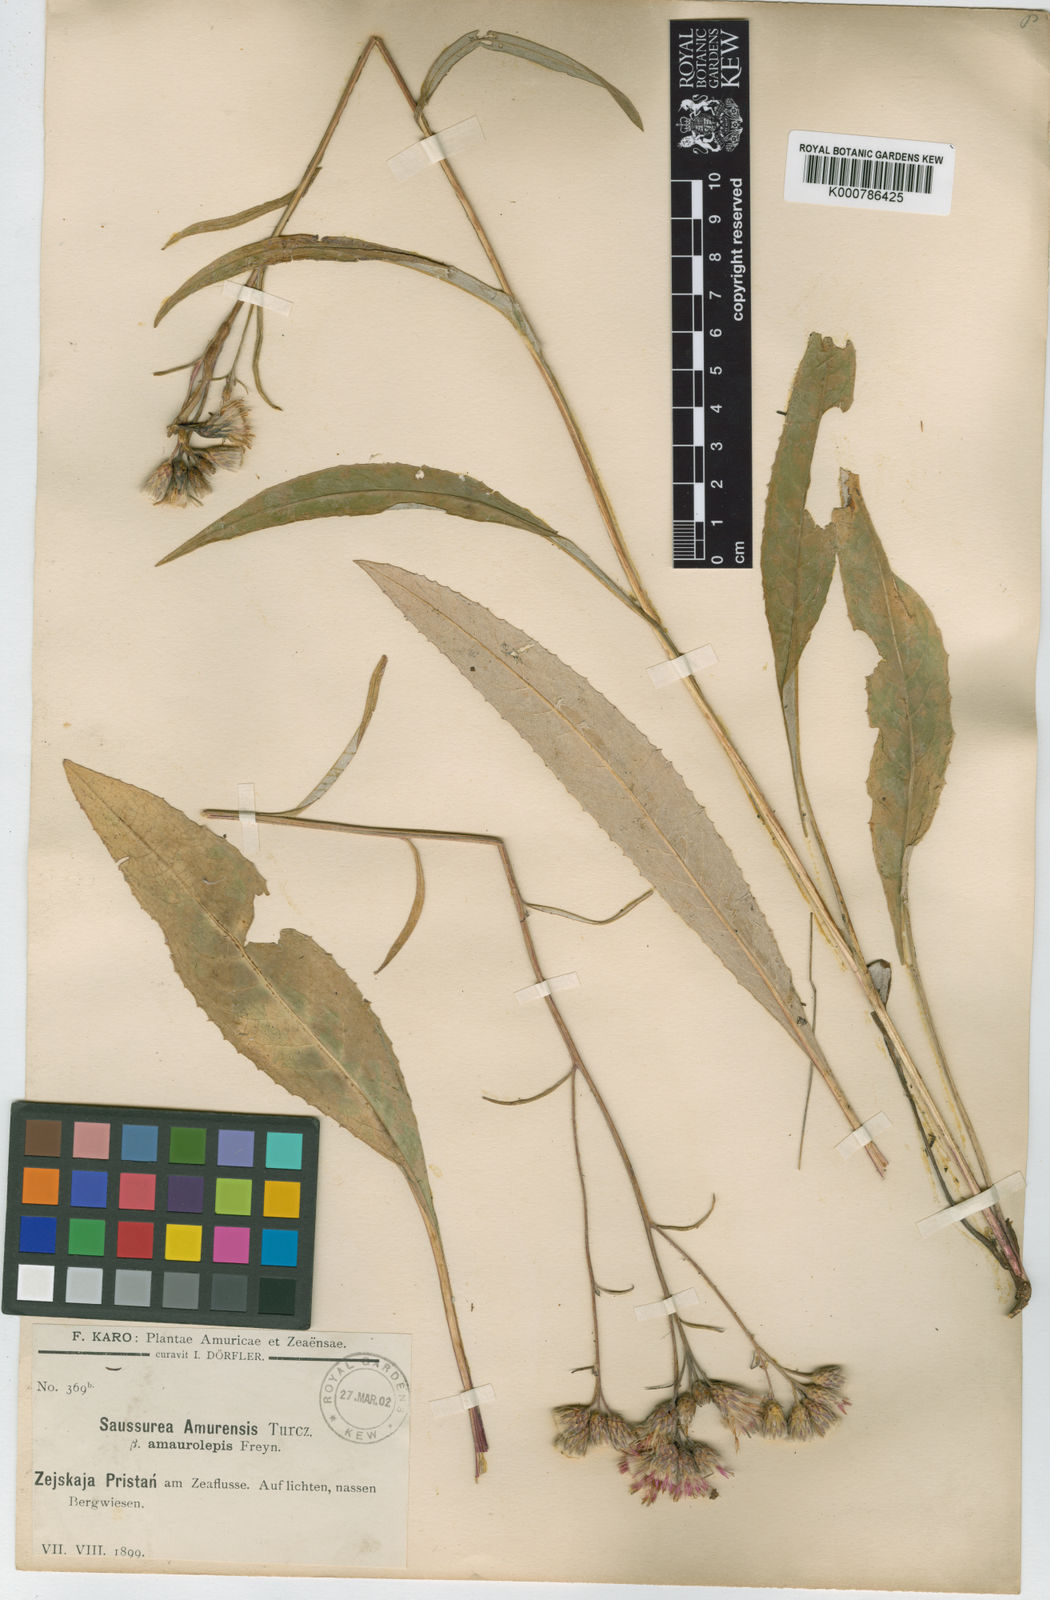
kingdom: Plantae
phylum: Tracheophyta
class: Magnoliopsida
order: Asterales
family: Asteraceae
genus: Saussurea
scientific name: Saussurea
